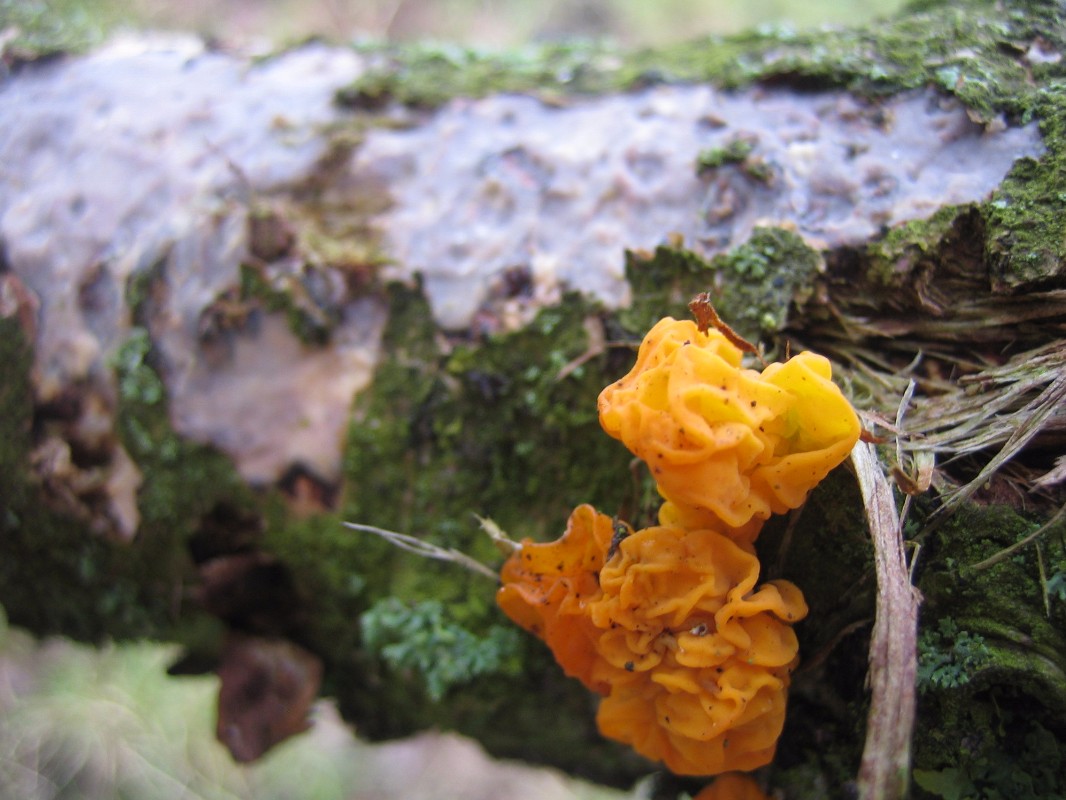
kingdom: Fungi
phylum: Basidiomycota
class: Tremellomycetes
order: Tremellales
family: Tremellaceae
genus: Tremella
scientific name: Tremella mesenterica
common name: gul bævresvamp
